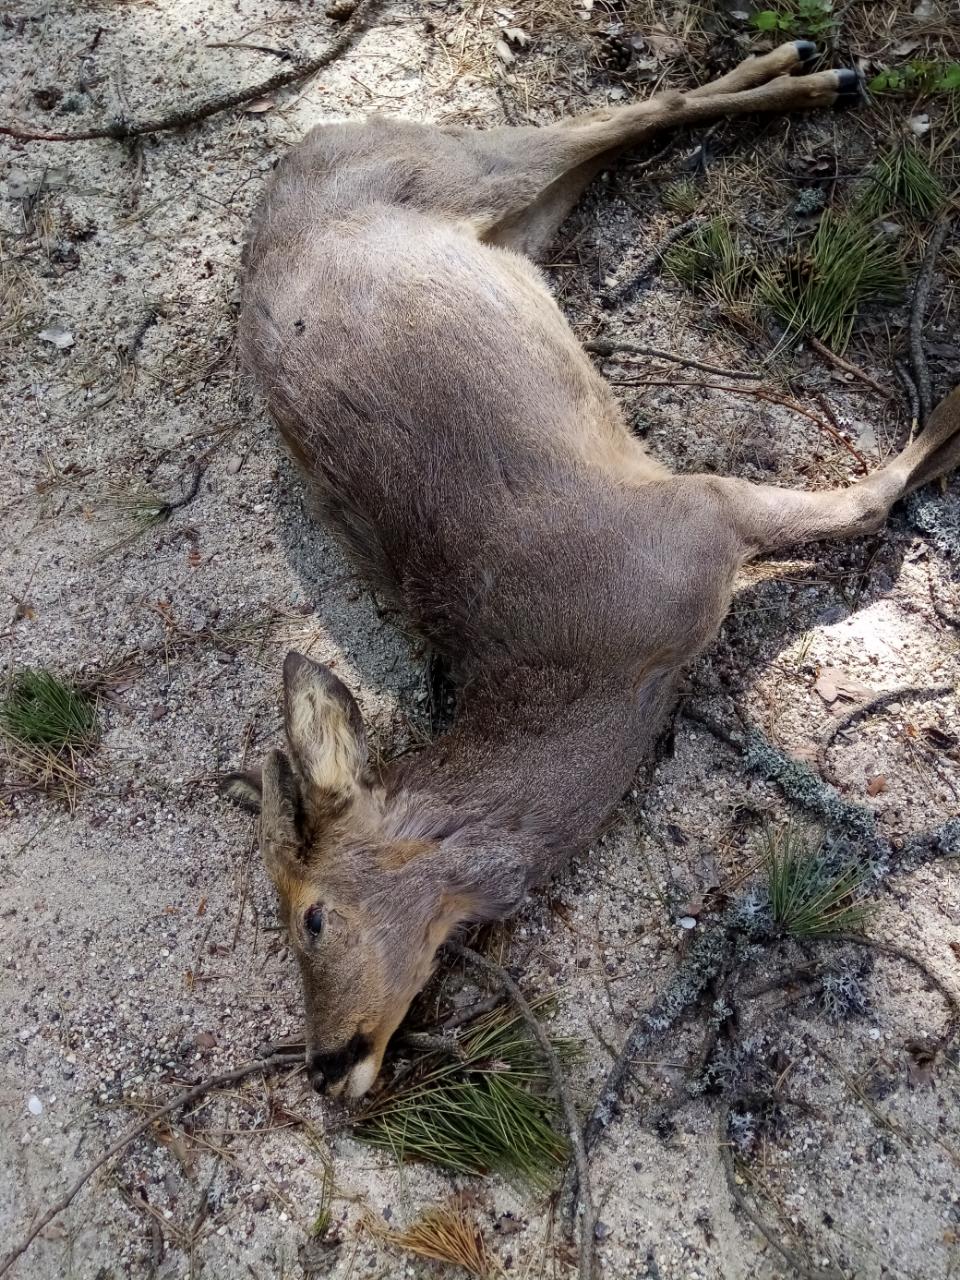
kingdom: Animalia
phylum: Chordata
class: Mammalia
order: Artiodactyla
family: Cervidae
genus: Capreolus
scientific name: Capreolus capreolus
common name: Western roe deer
